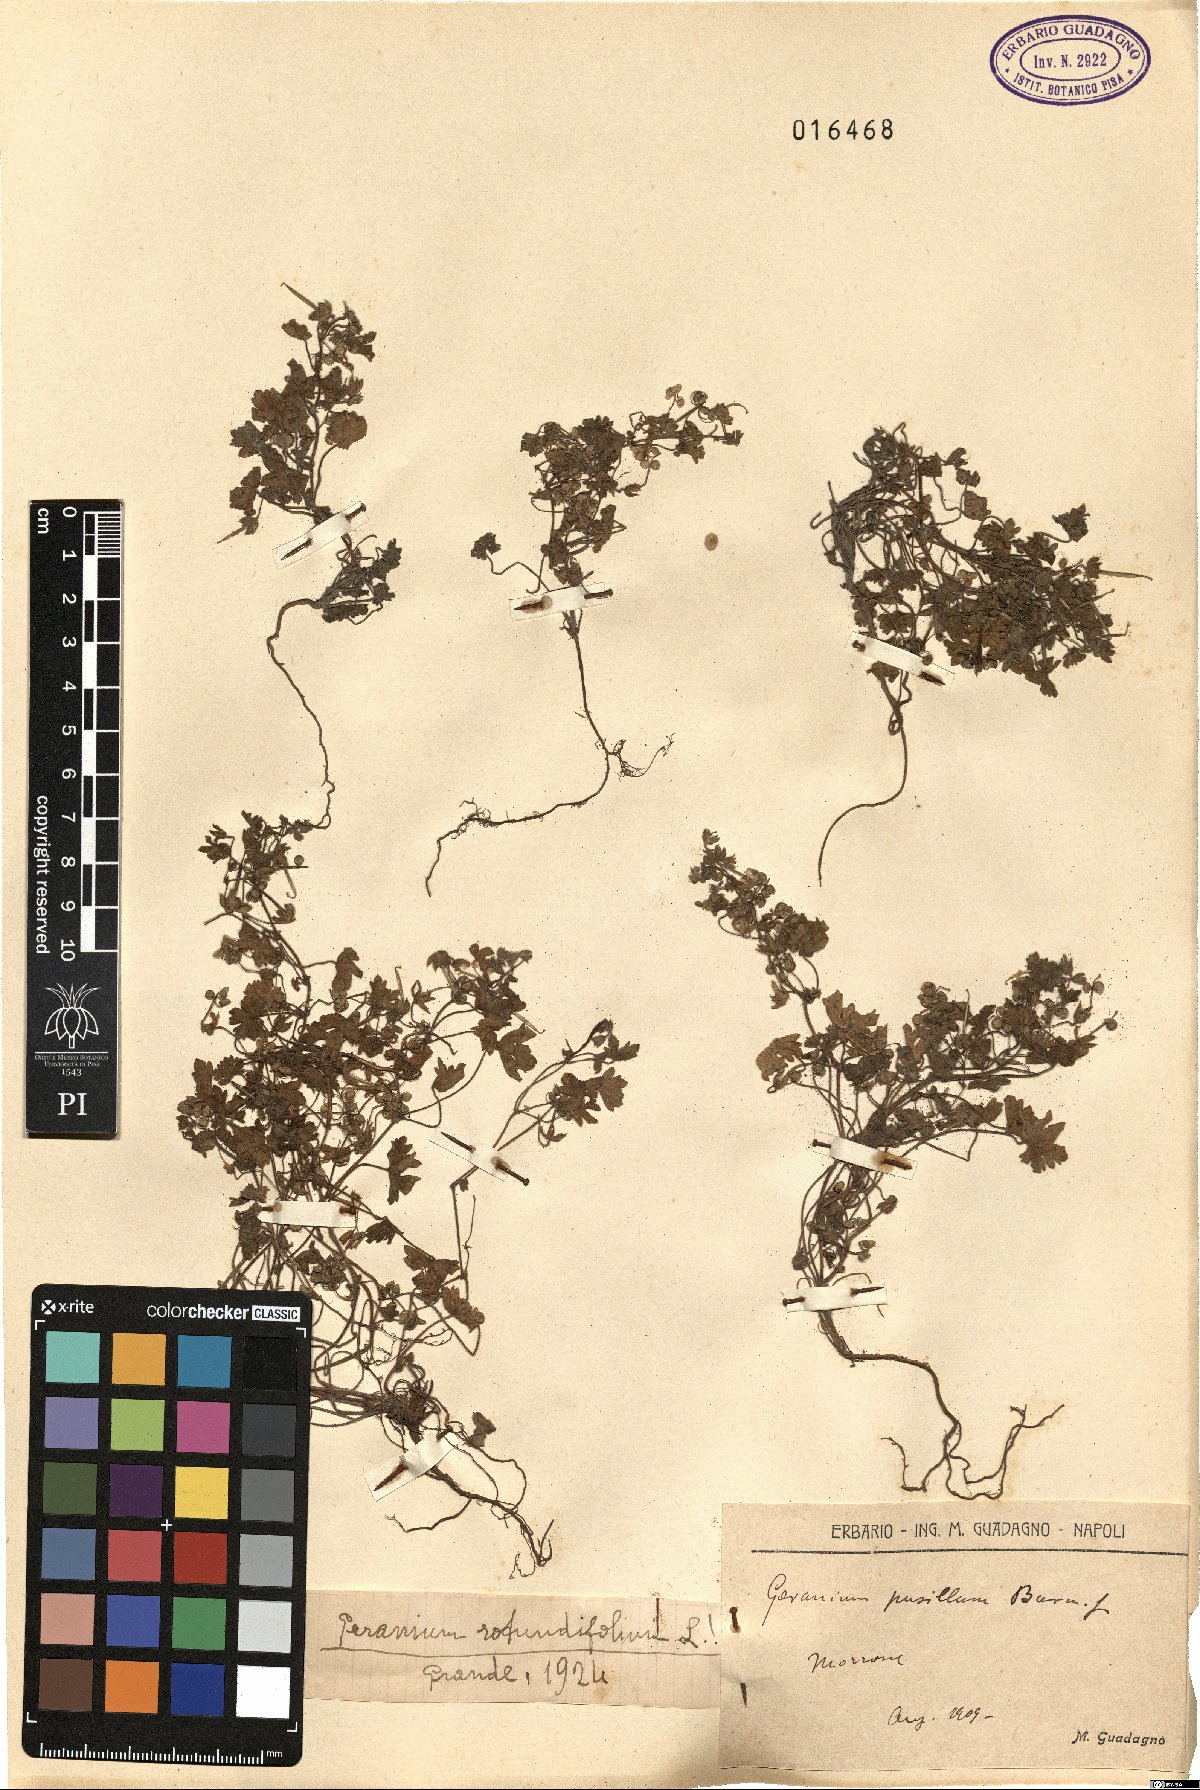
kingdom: Plantae
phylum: Tracheophyta
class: Magnoliopsida
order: Geraniales
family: Geraniaceae
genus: Geranium
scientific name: Geranium rotundifolium
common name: Round-leaved crane's-bill
